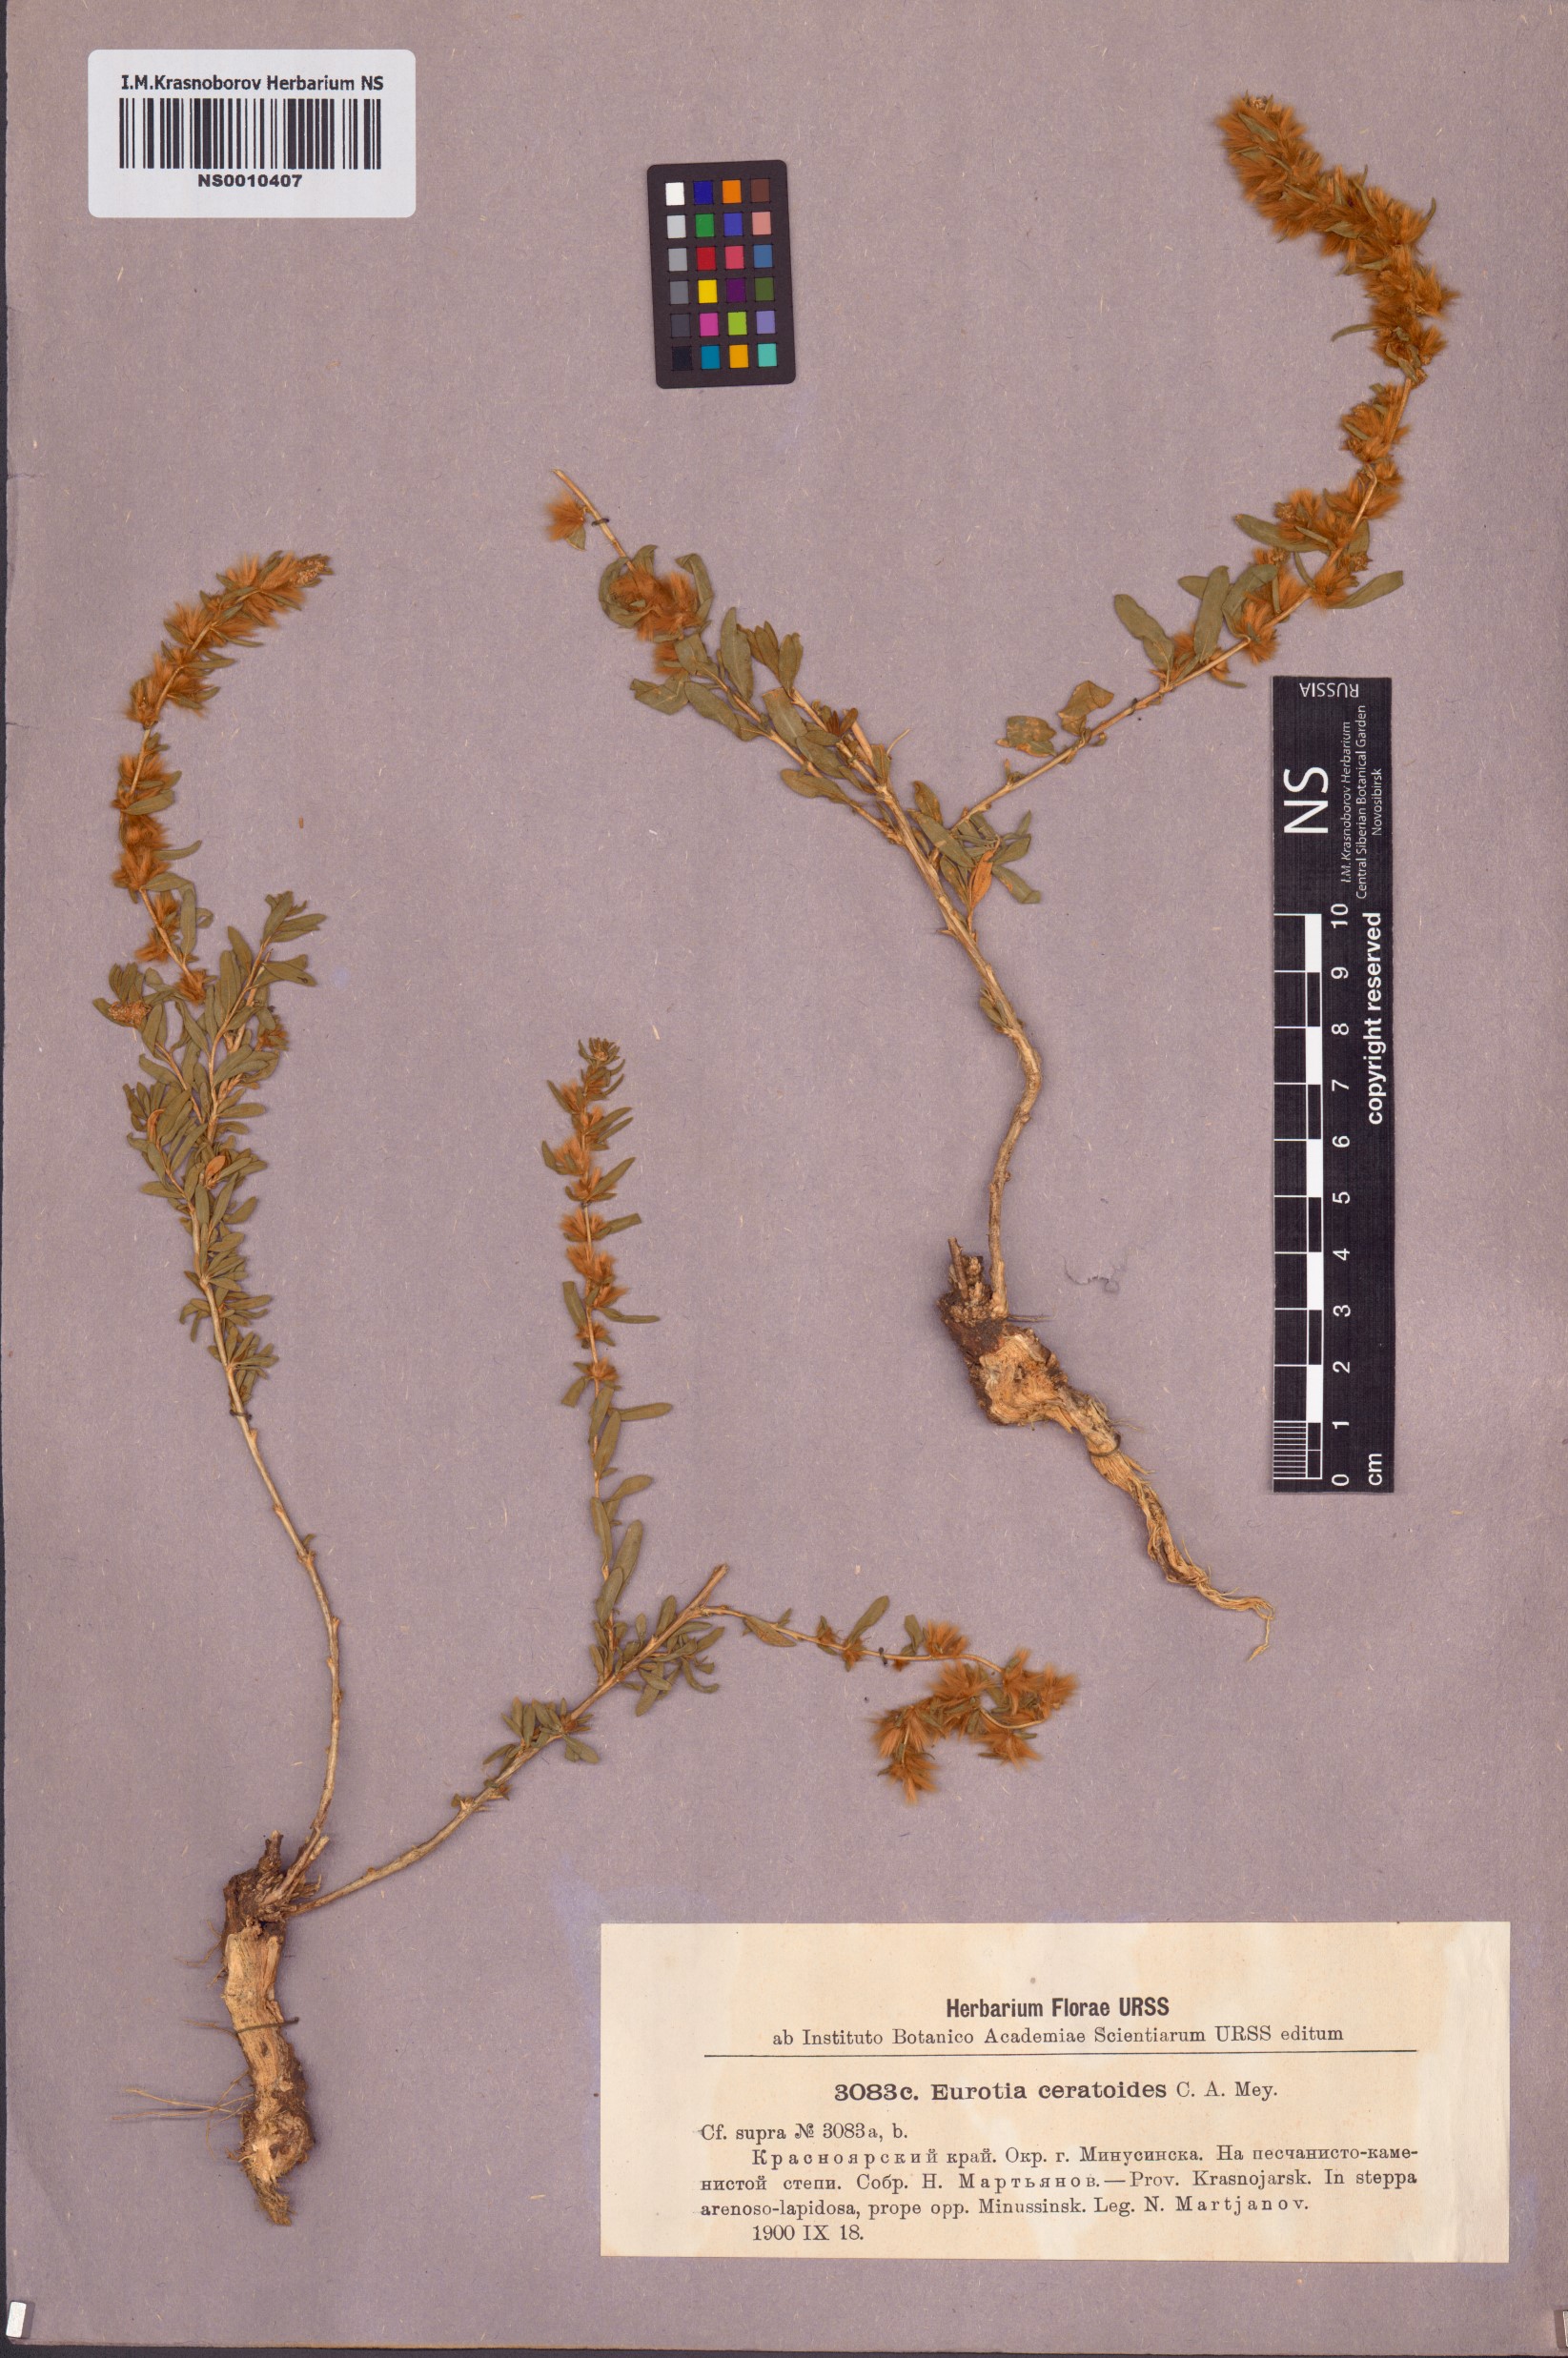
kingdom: Plantae
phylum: Tracheophyta
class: Magnoliopsida
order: Caryophyllales
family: Amaranthaceae
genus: Krascheninnikovia
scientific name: Krascheninnikovia ceratoides
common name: Pamirian winterfat
